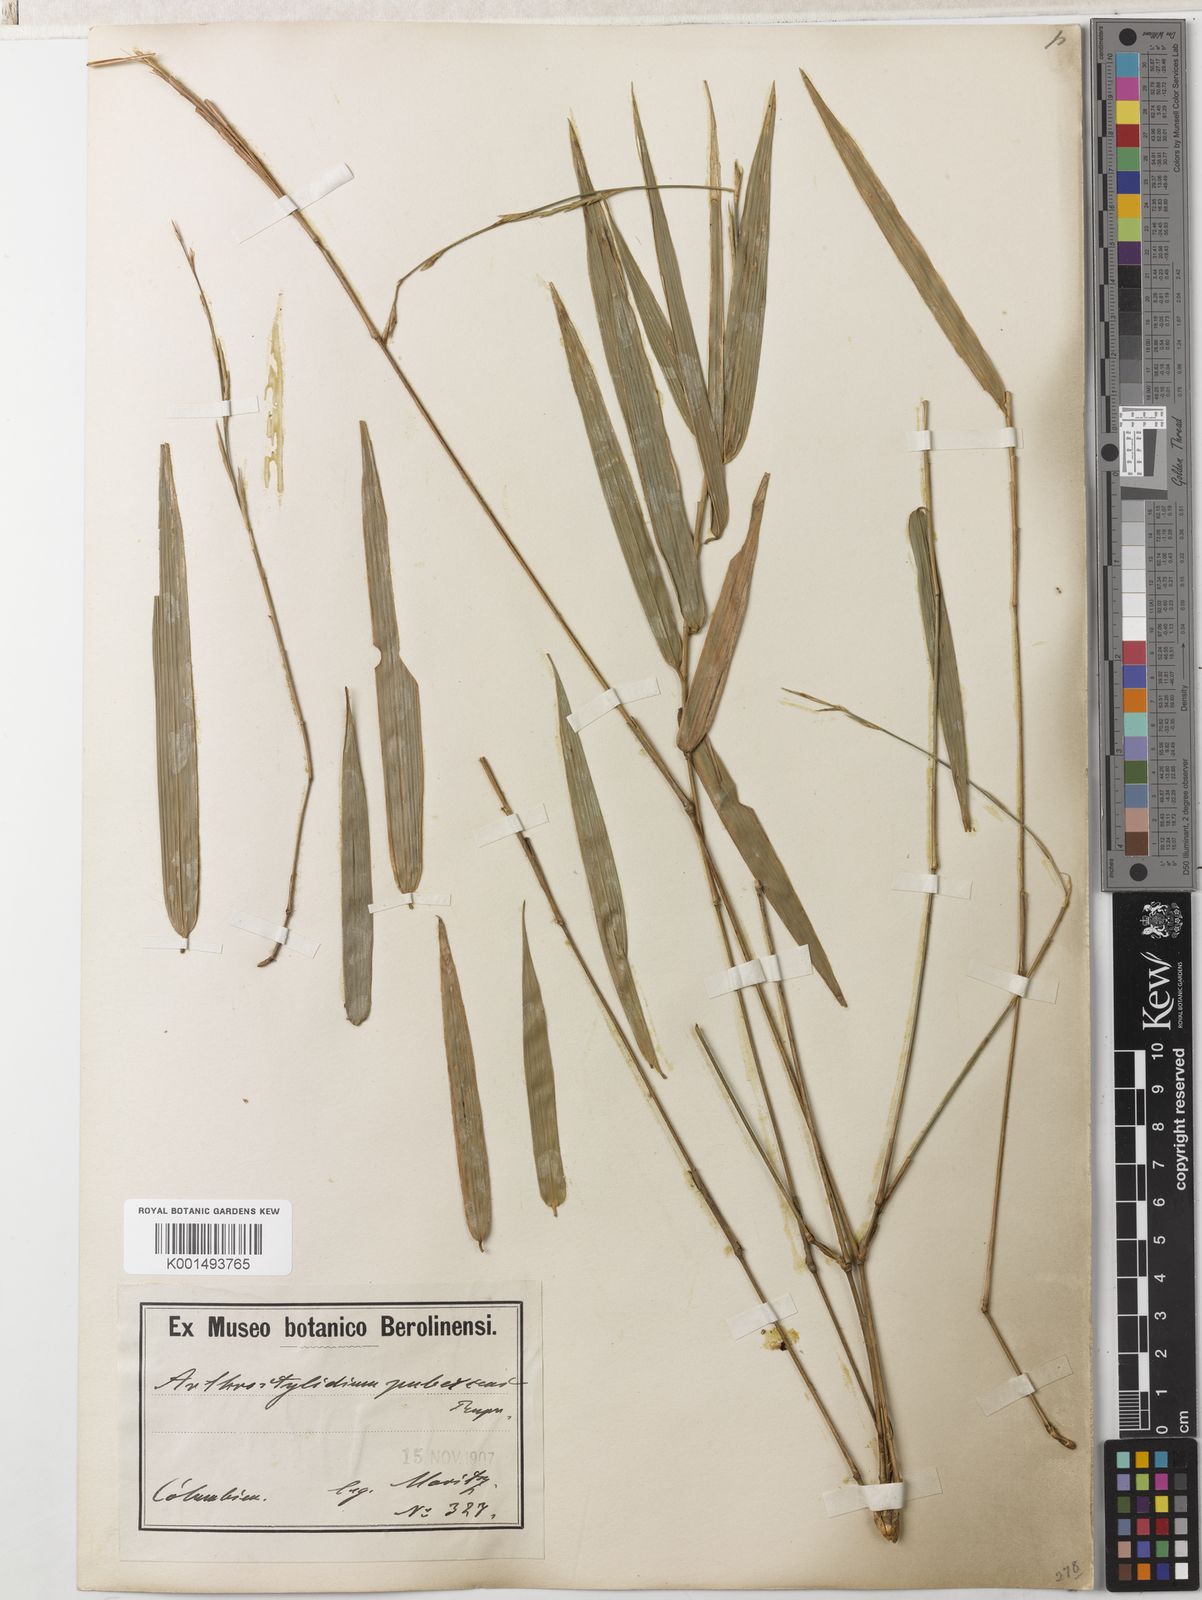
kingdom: Plantae
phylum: Tracheophyta
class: Liliopsida
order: Poales
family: Poaceae
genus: Arthrostylidium
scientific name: Arthrostylidium pubescens
